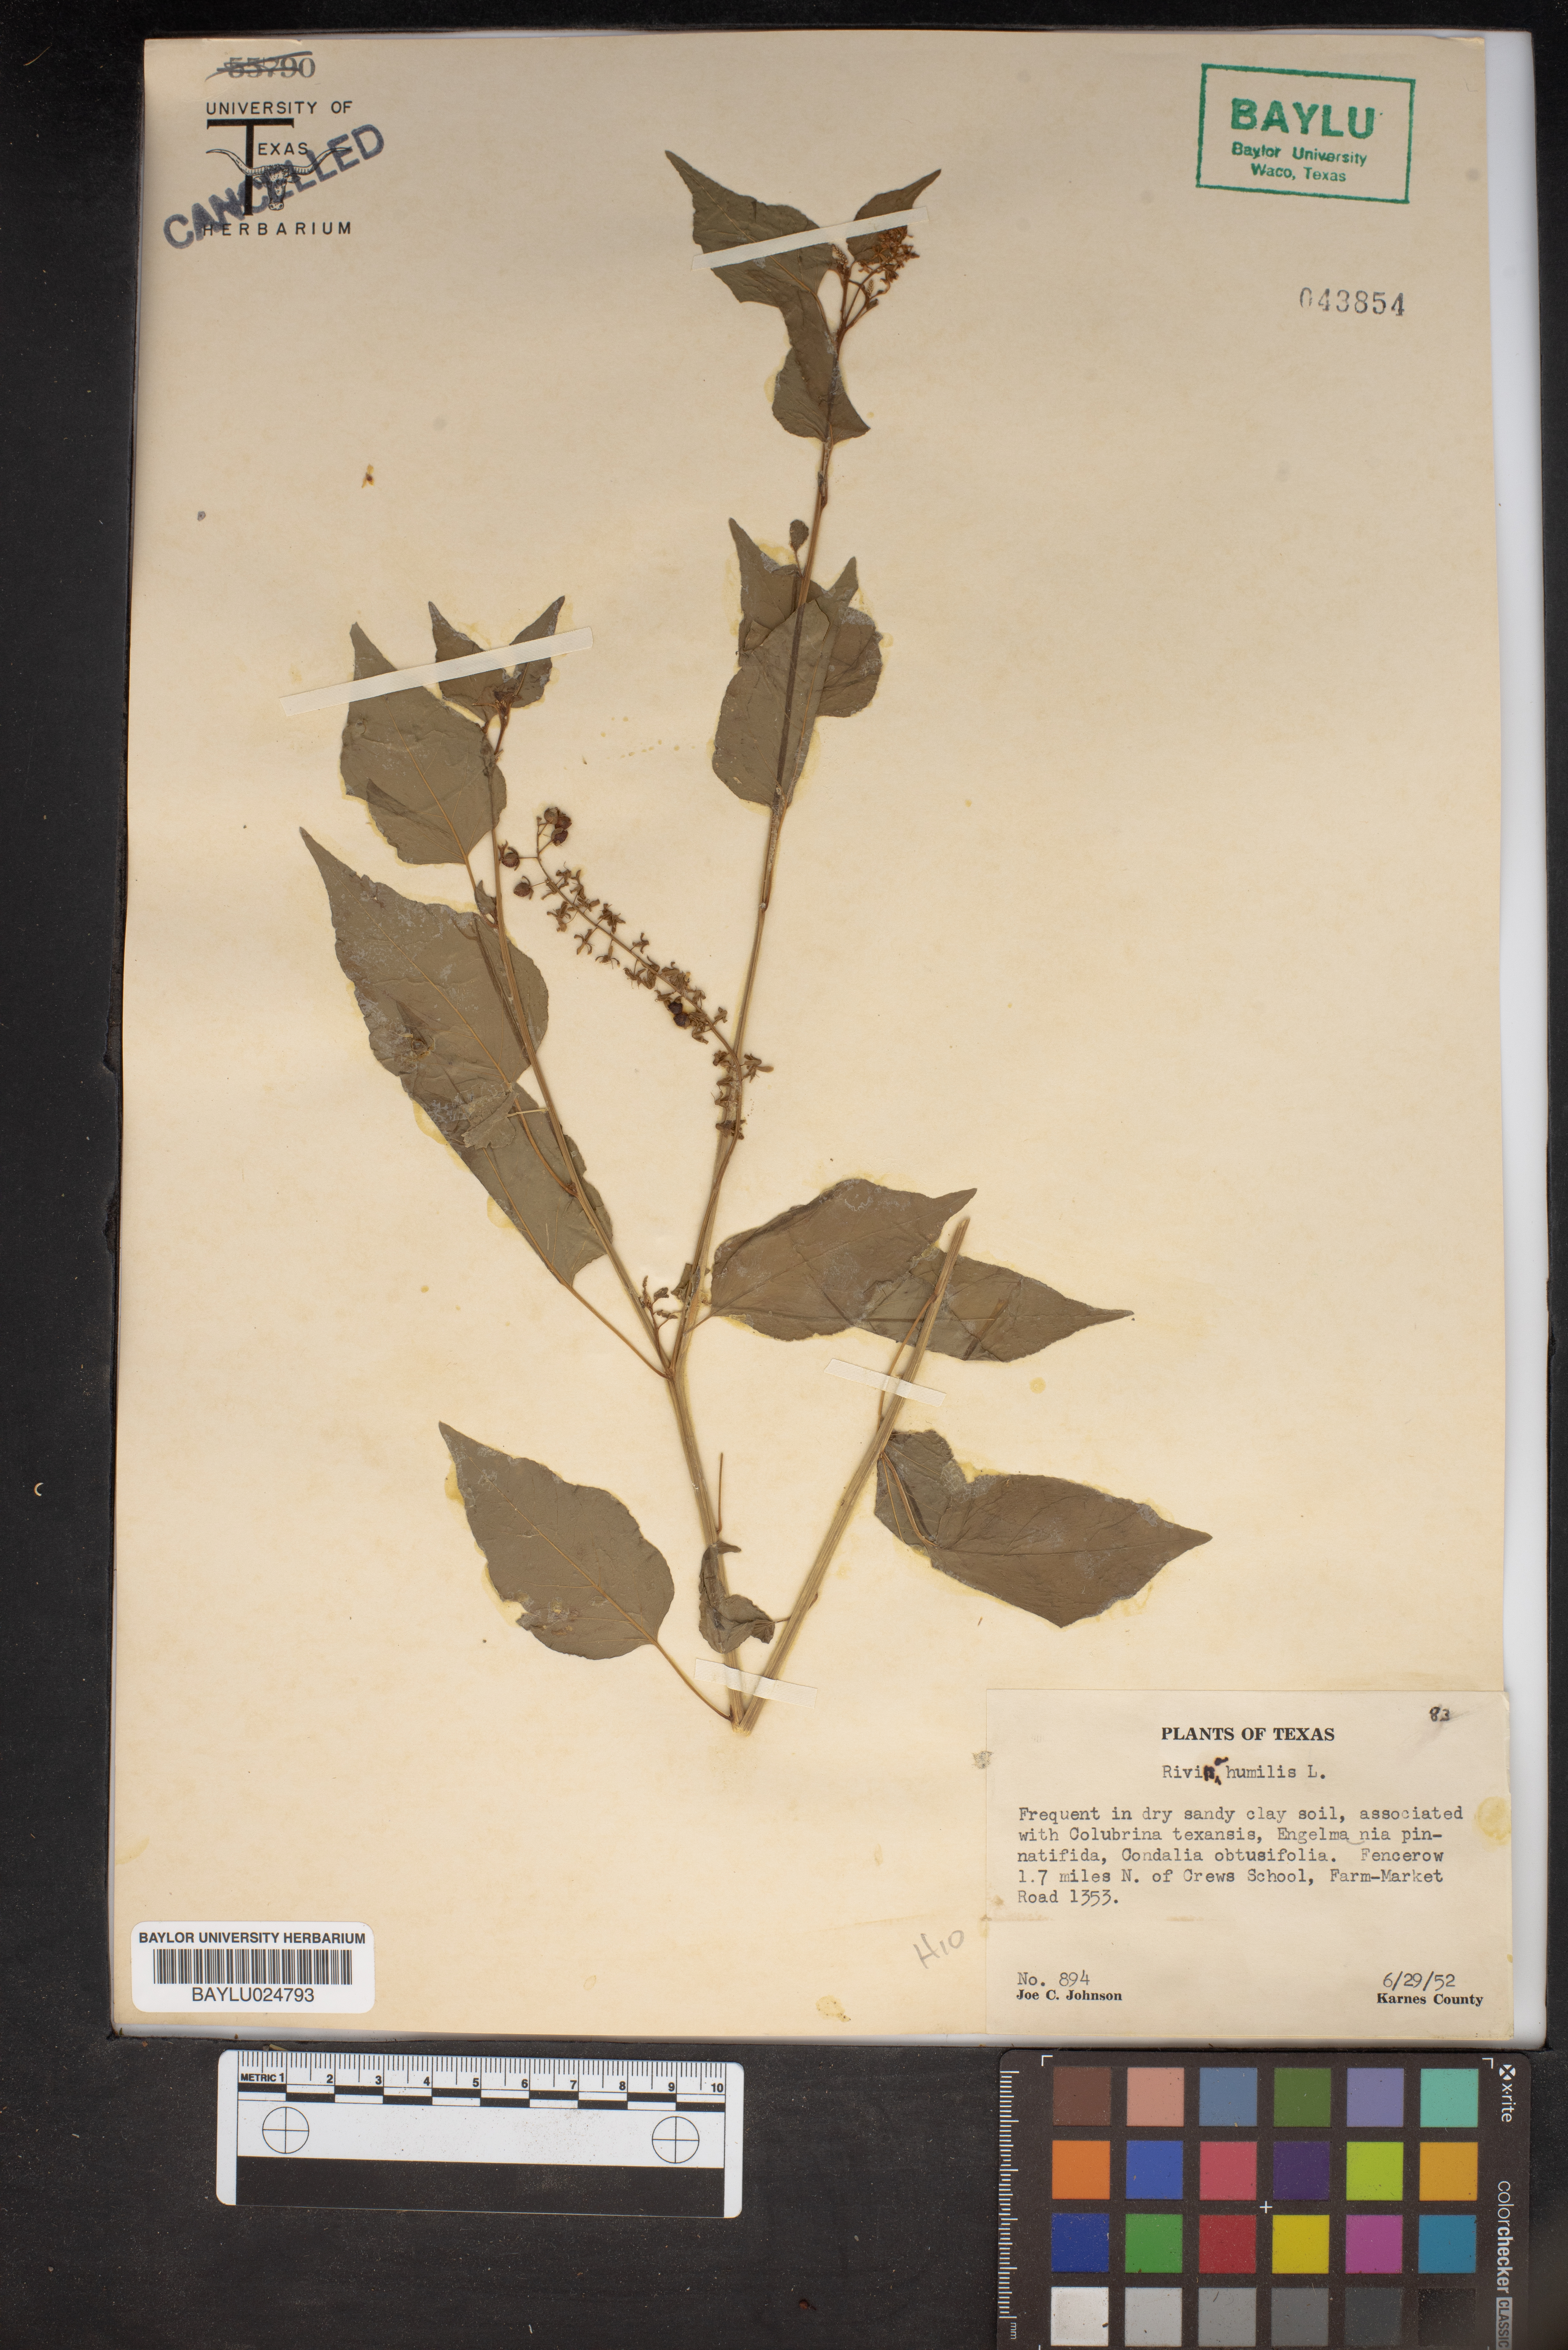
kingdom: Plantae
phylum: Tracheophyta
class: Magnoliopsida
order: Caryophyllales
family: Phytolaccaceae
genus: Rivina
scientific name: Rivina humilis
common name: Rougeplant
